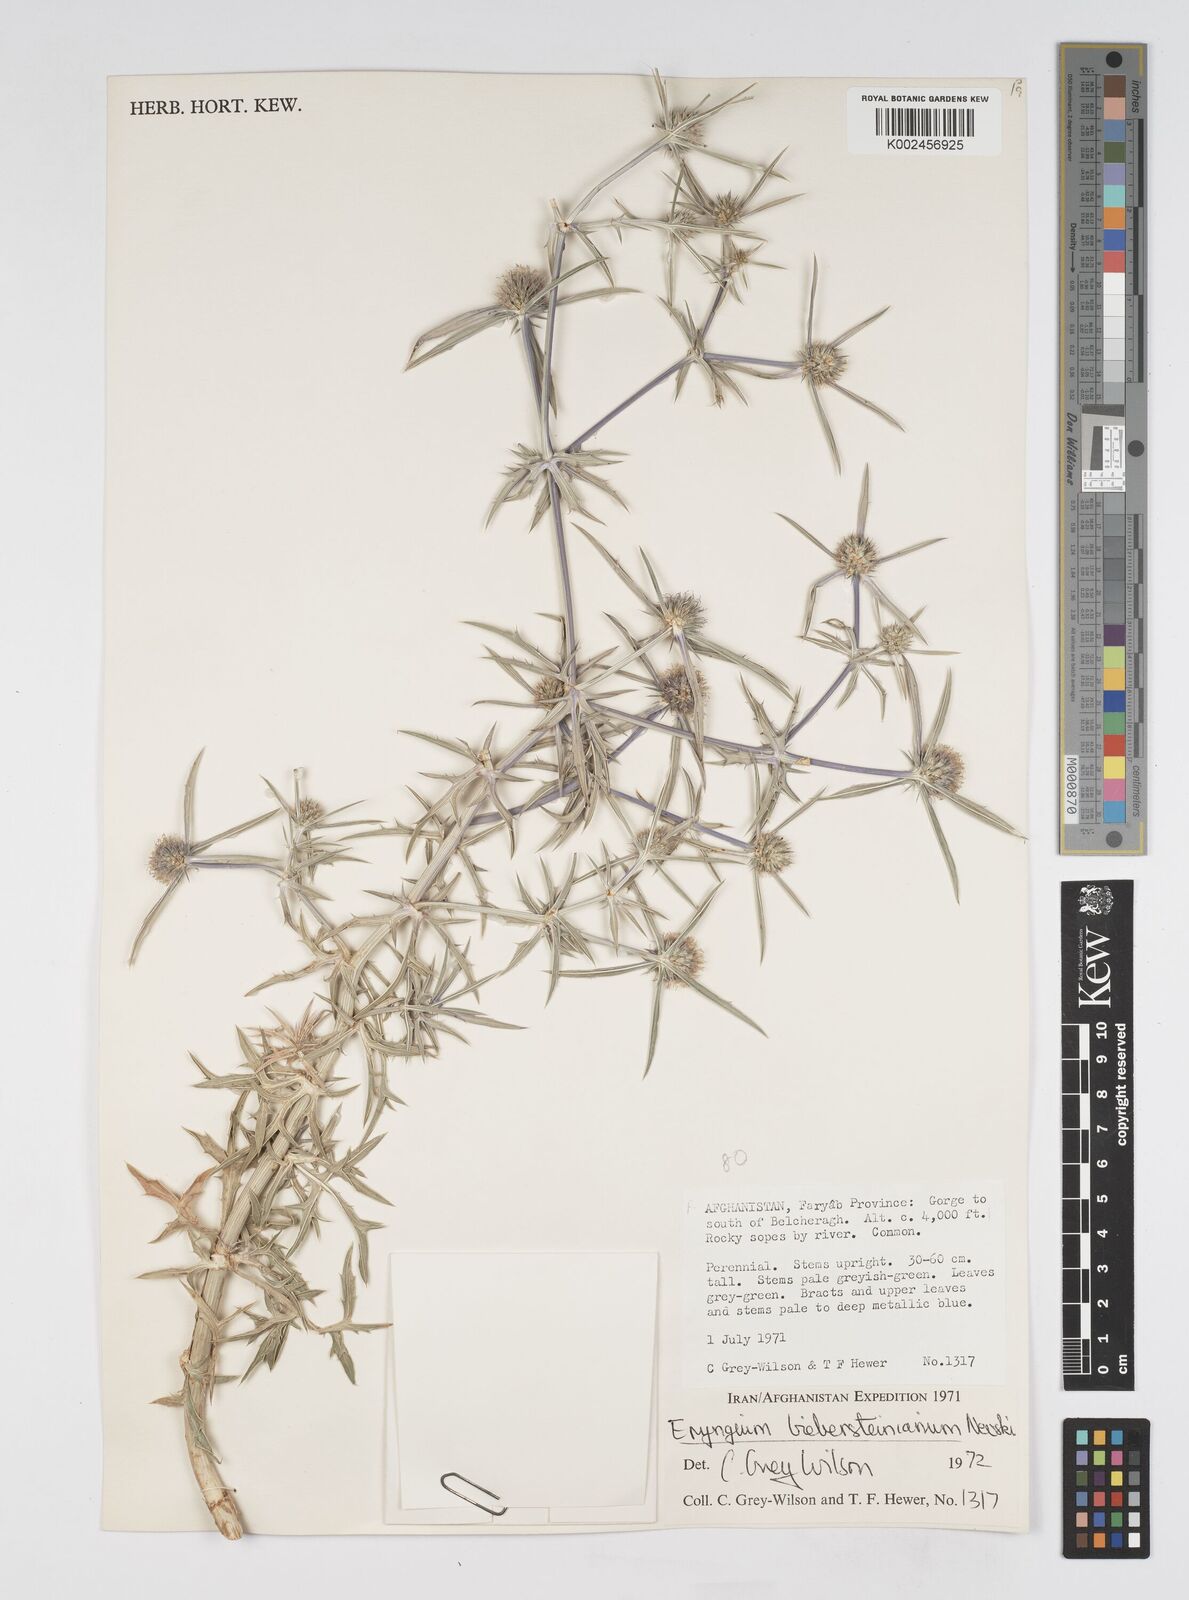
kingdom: Plantae
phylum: Tracheophyta
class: Magnoliopsida
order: Apiales
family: Apiaceae
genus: Eryngium
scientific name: Eryngium caeruleum
